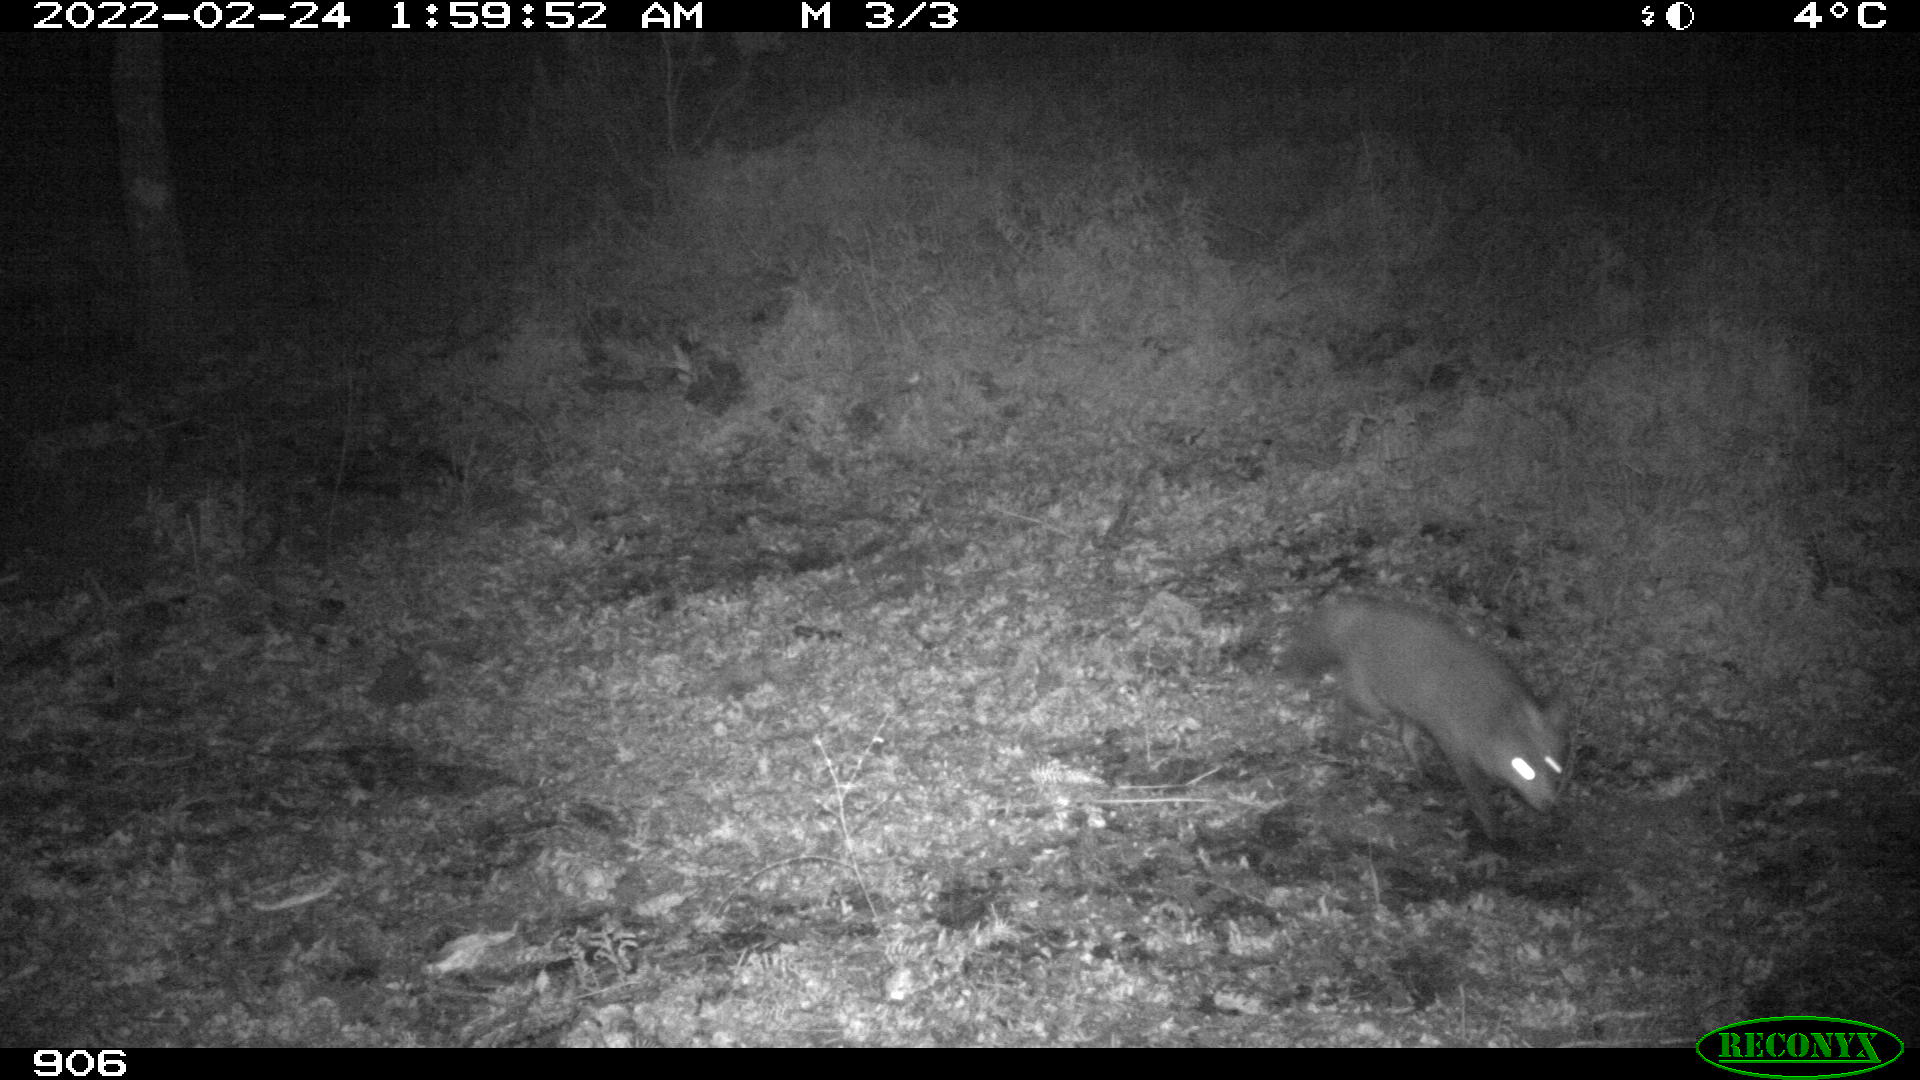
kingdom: Animalia
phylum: Chordata
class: Mammalia
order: Carnivora
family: Canidae
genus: Vulpes
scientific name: Vulpes vulpes
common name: Red fox
